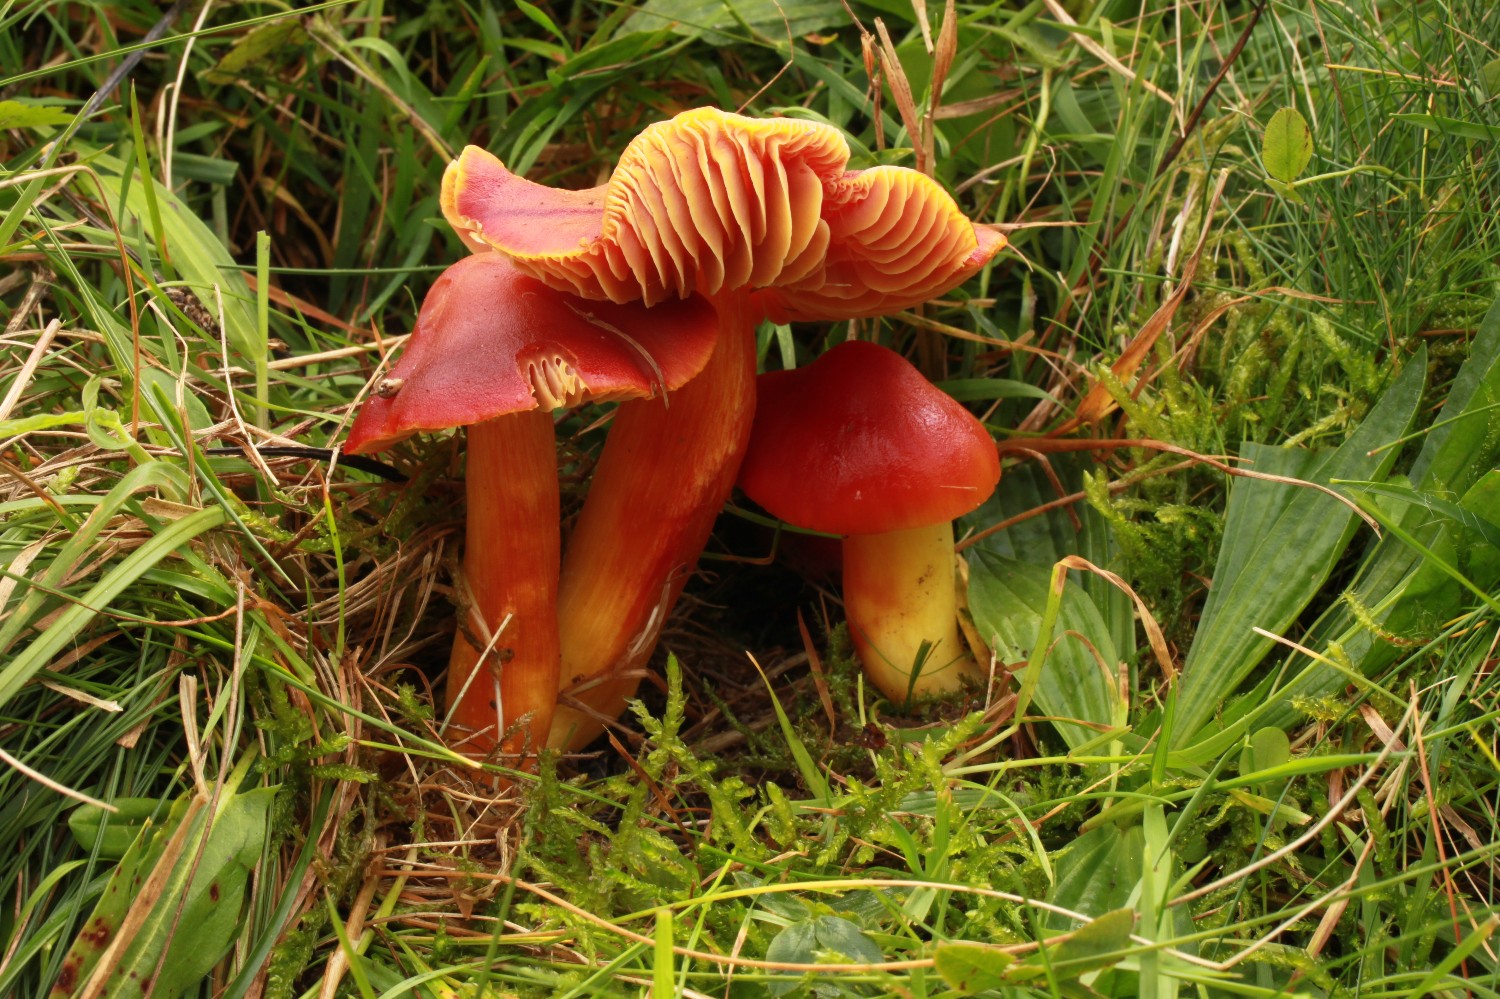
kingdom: Fungi
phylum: Basidiomycota
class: Agaricomycetes
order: Agaricales
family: Hygrophoraceae
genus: Hygrocybe
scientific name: Hygrocybe punicea
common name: skarlagen-vokshat
